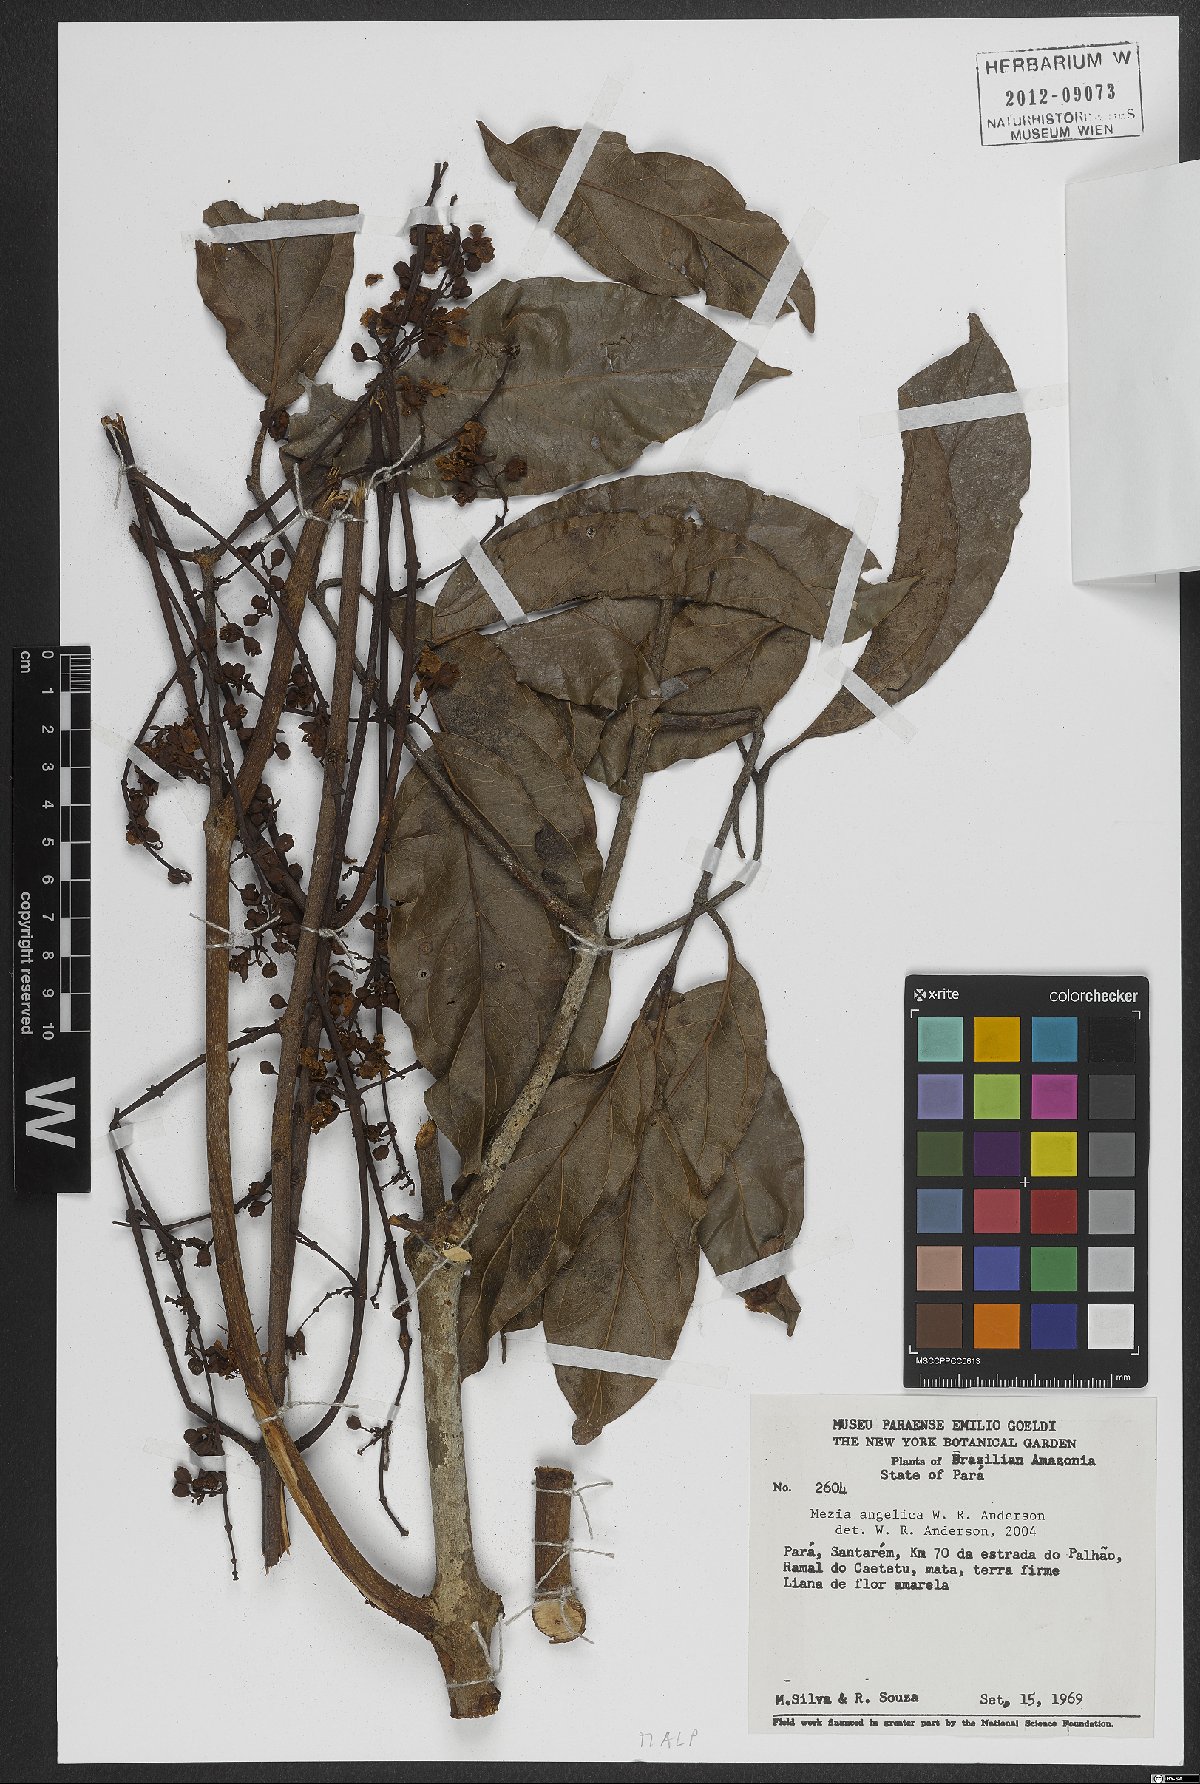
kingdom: Plantae
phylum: Tracheophyta
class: Magnoliopsida
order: Malpighiales
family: Malpighiaceae
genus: Mezia
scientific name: Mezia angelica
